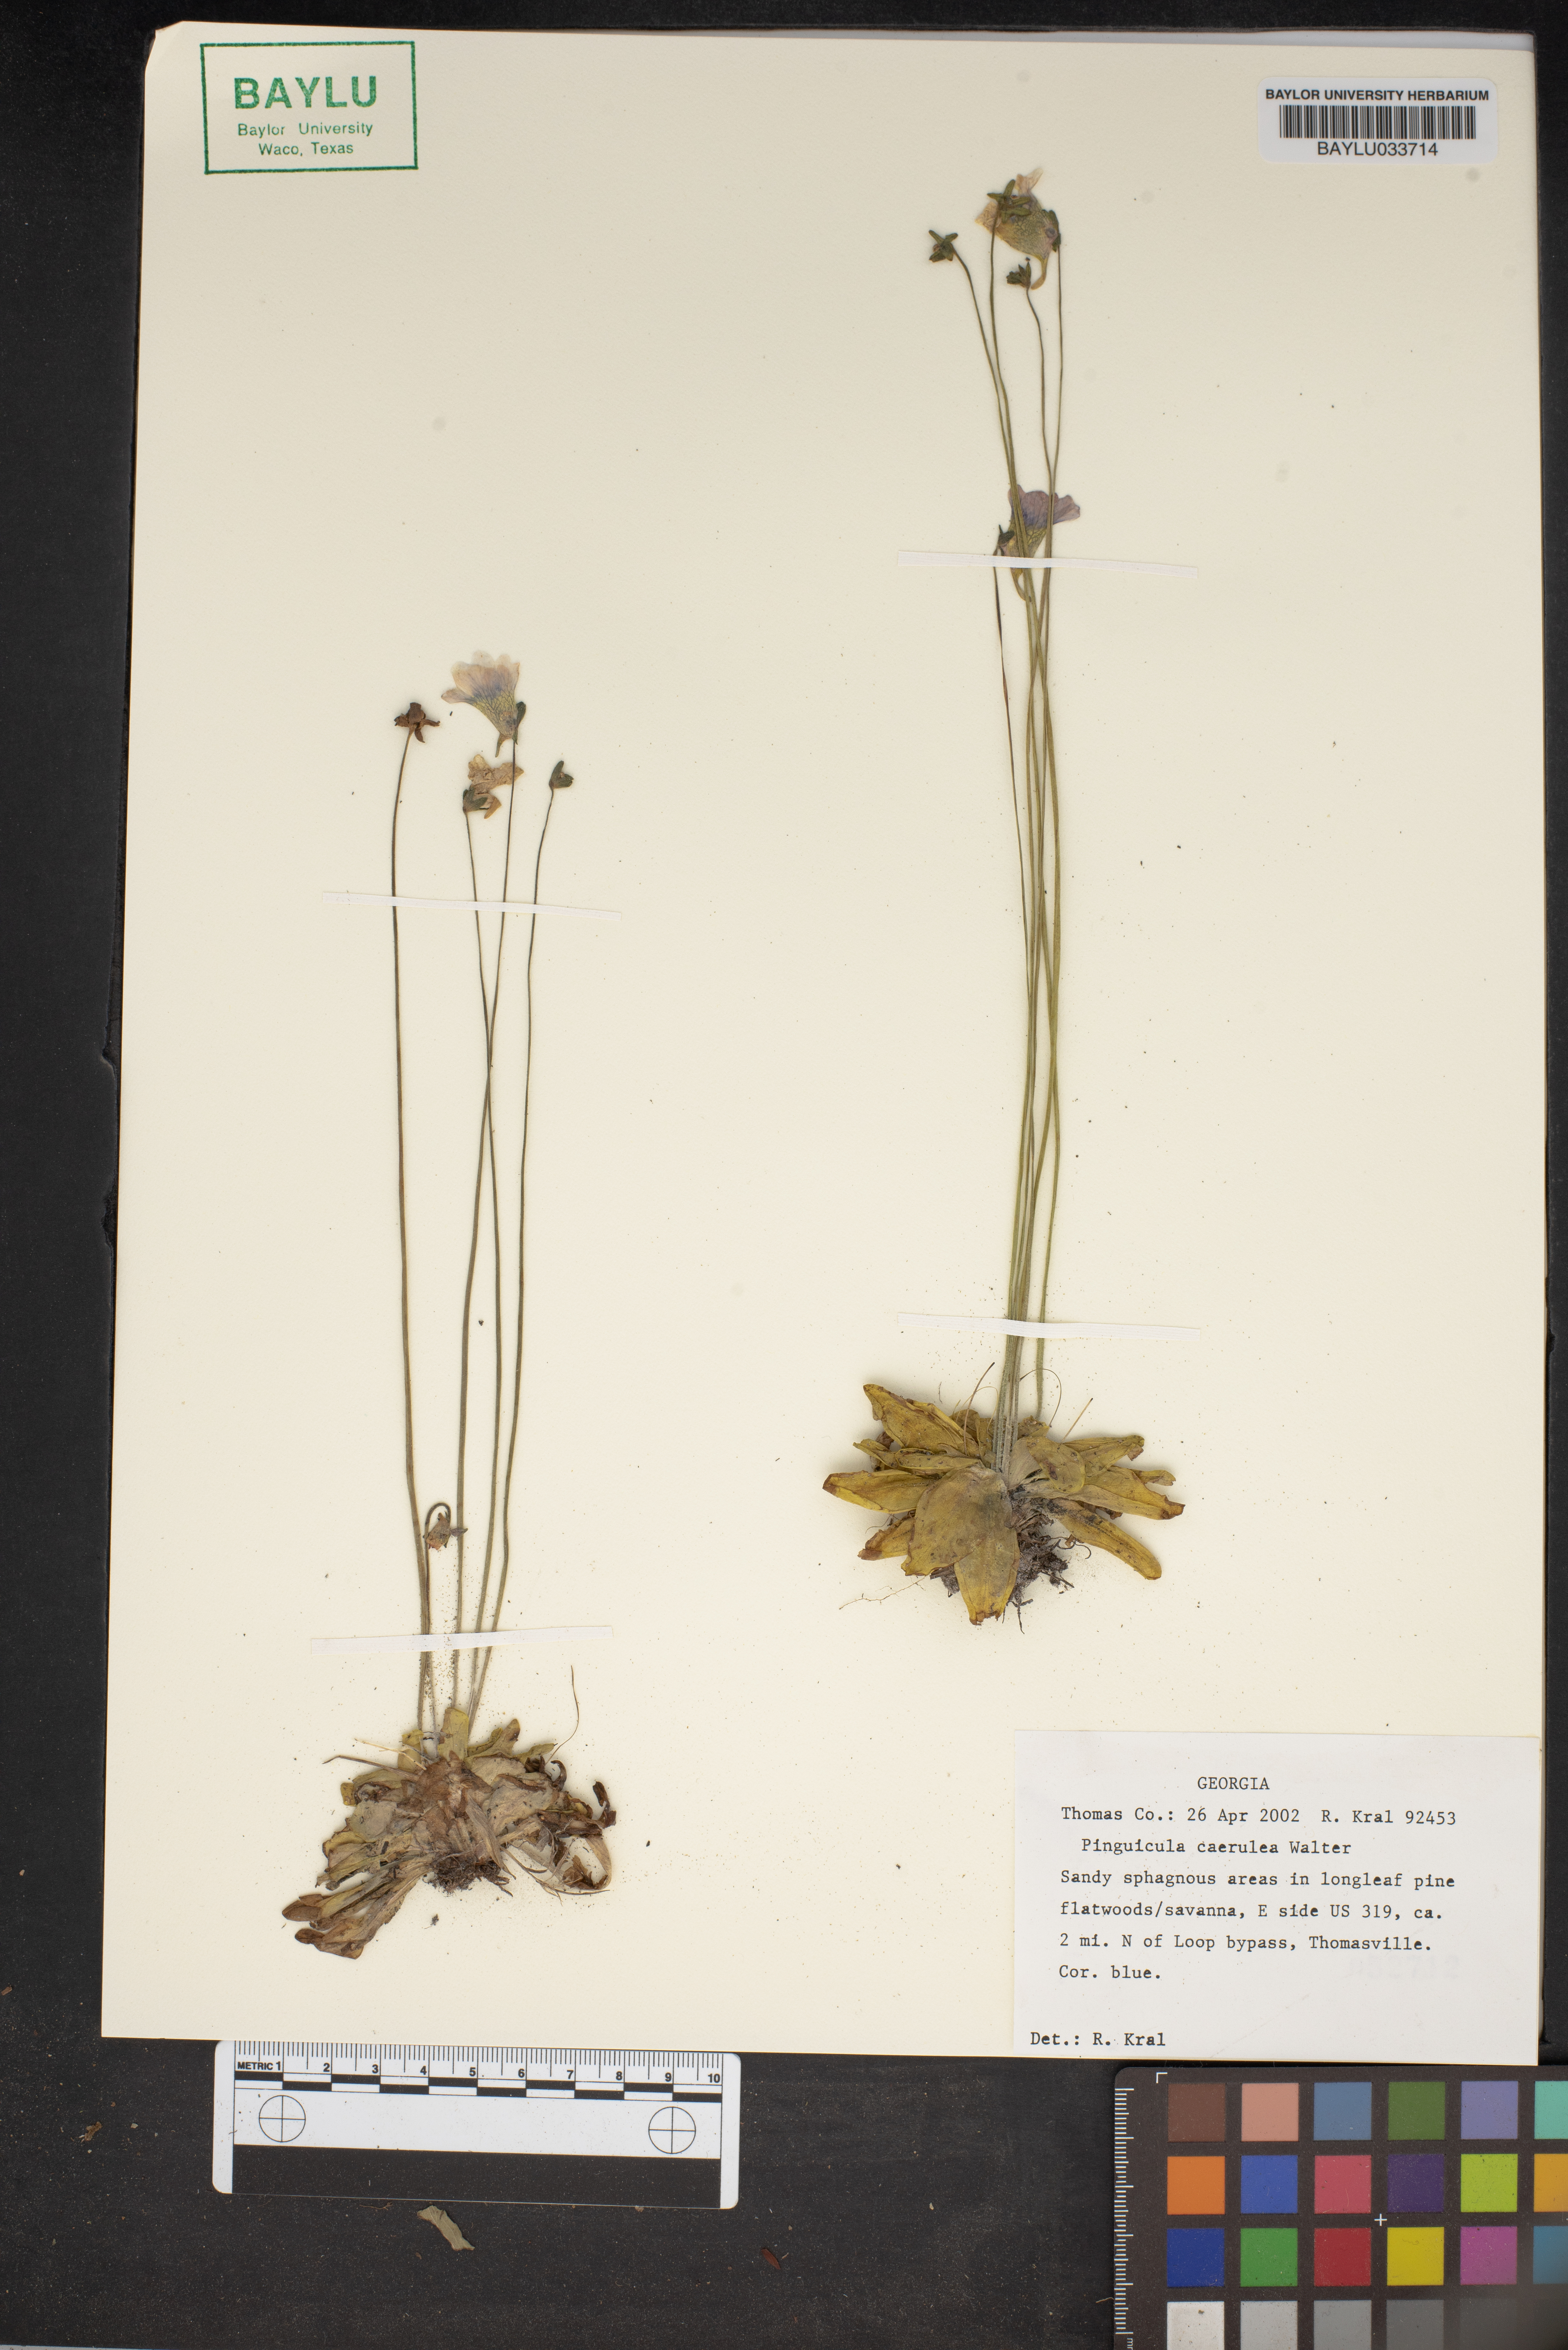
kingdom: Plantae
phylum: Tracheophyta
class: Magnoliopsida
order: Lamiales
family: Lentibulariaceae
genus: Pinguicula
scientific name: Pinguicula caerulea
